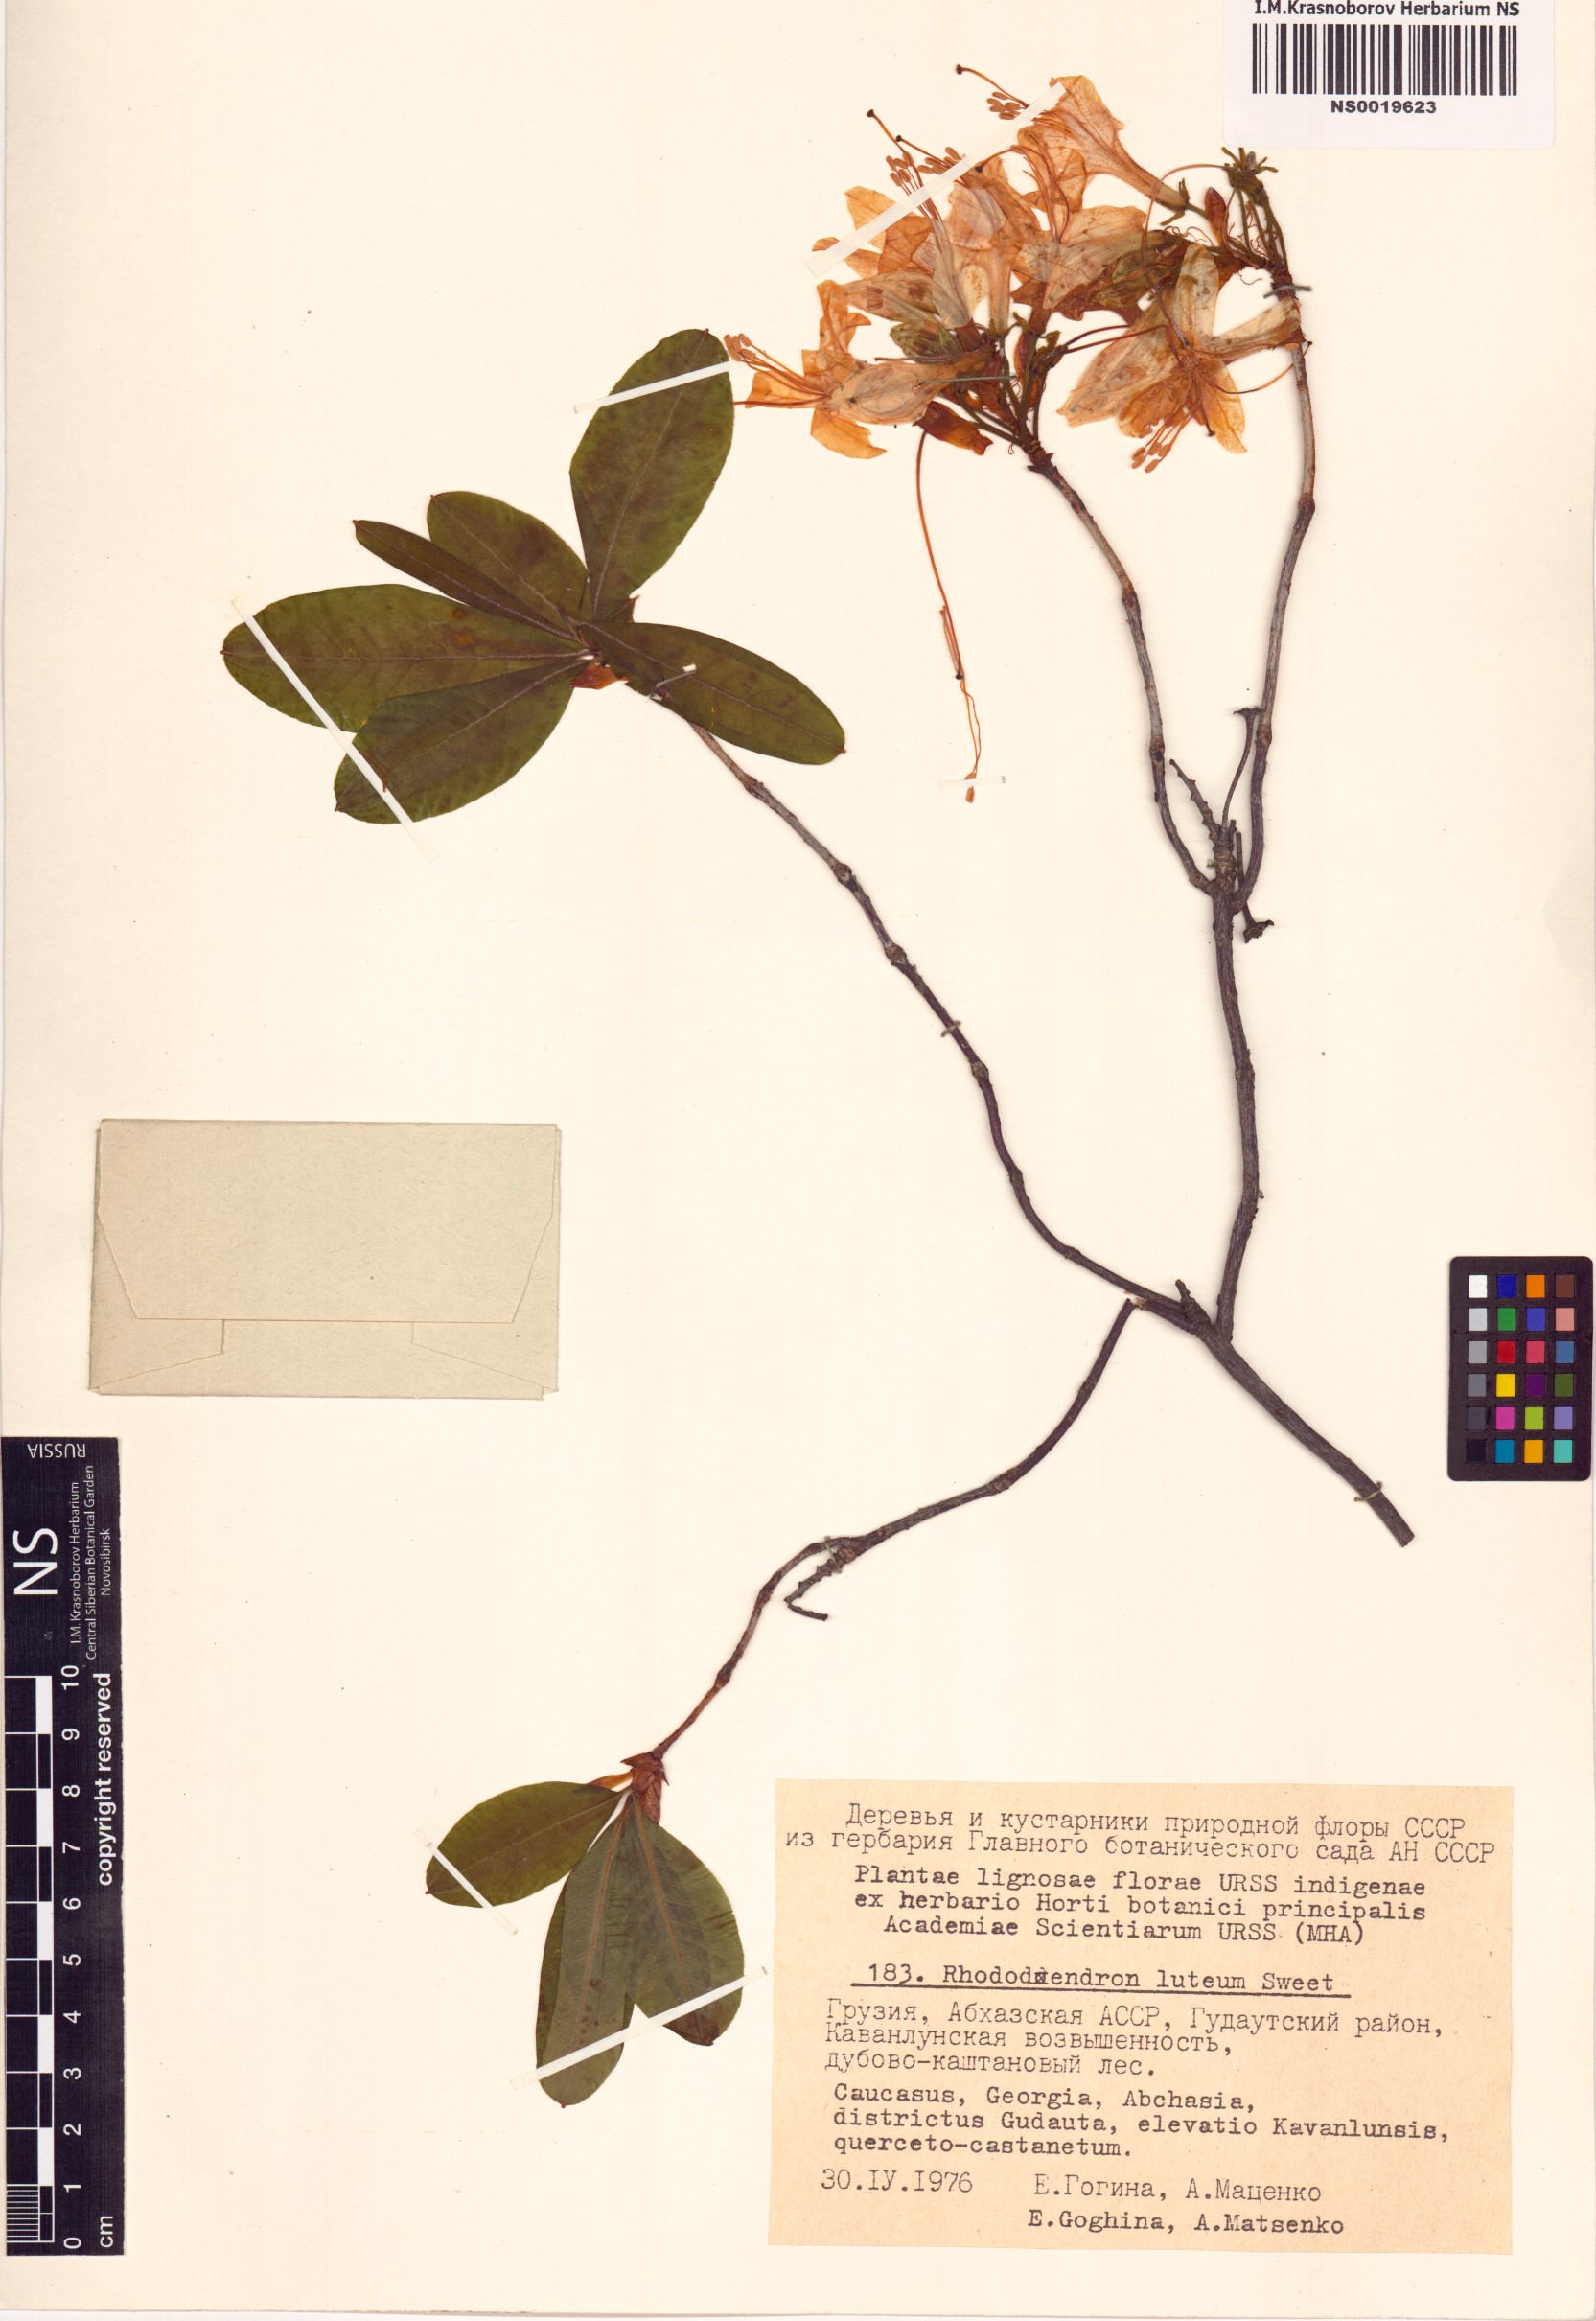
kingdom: Plantae
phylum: Tracheophyta
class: Magnoliopsida
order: Ericales
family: Ericaceae
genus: Rhododendron
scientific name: Rhododendron luteum
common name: Yellow azalea
